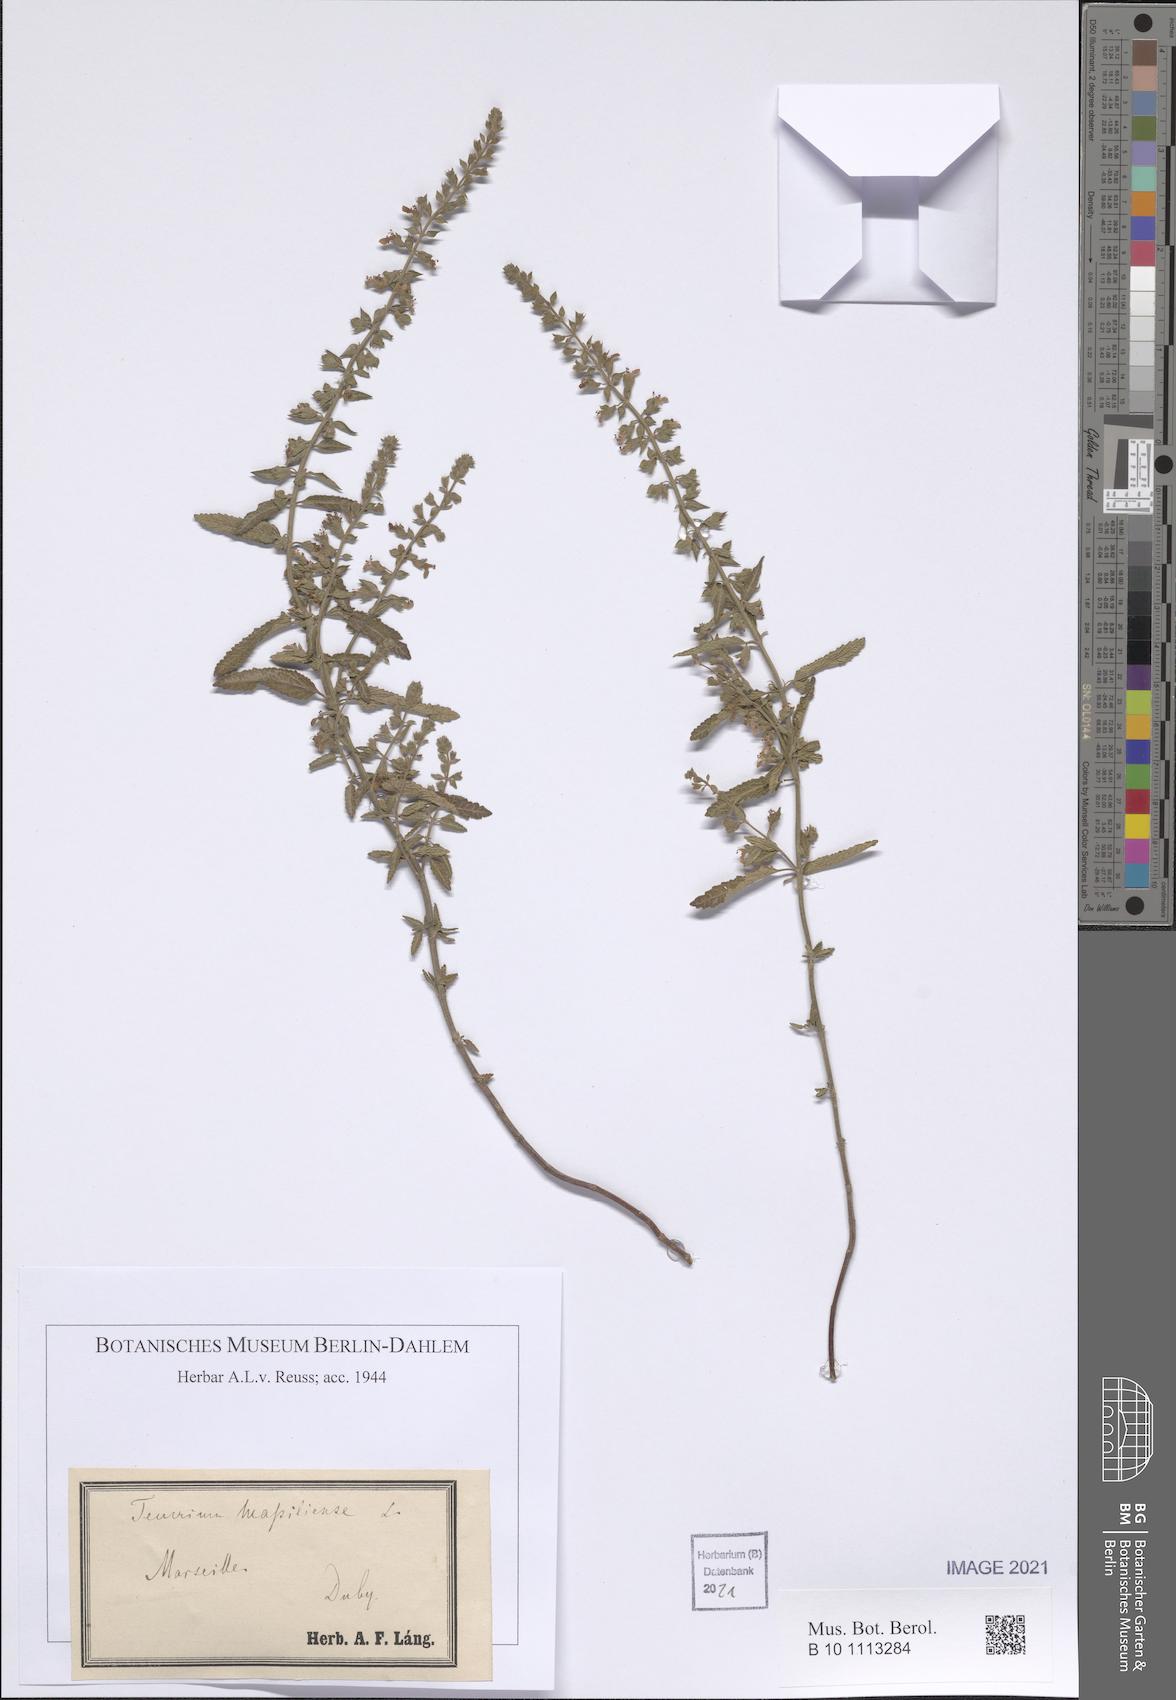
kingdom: Plantae
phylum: Tracheophyta
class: Magnoliopsida
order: Lamiales
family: Lamiaceae
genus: Teucrium
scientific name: Teucrium massiliense
